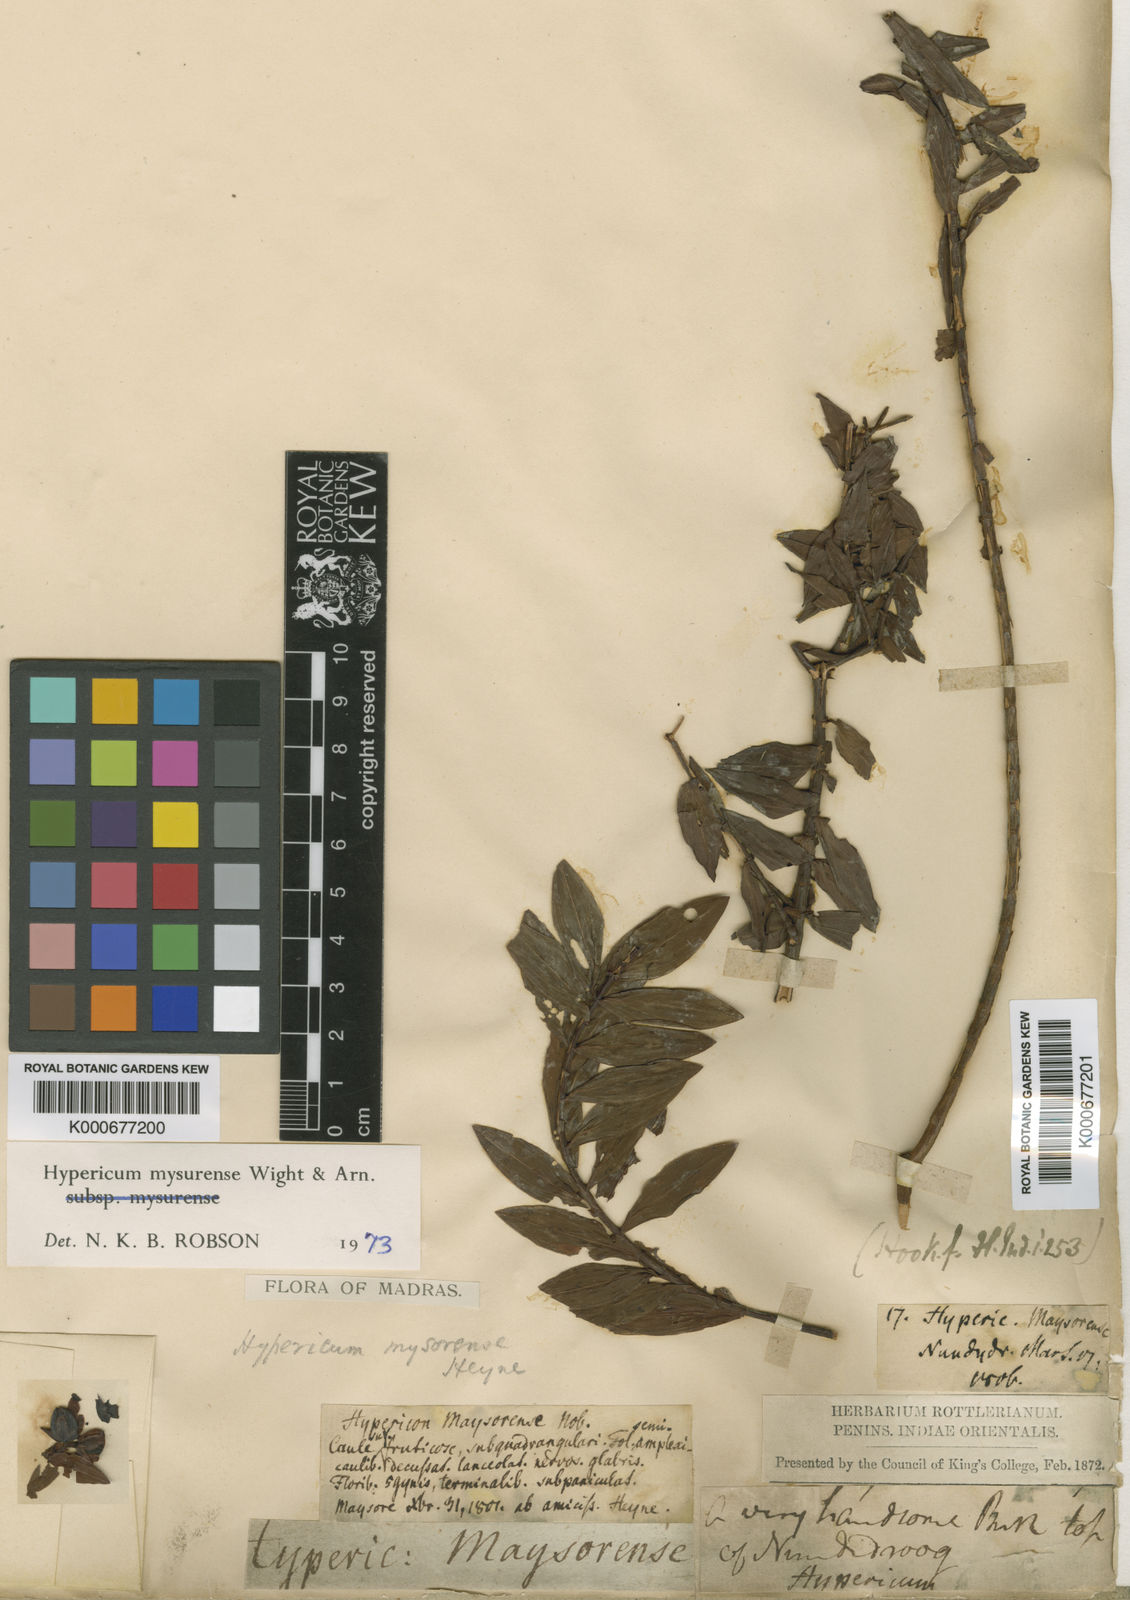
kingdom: Plantae
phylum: Tracheophyta
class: Magnoliopsida
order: Malpighiales
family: Hypericaceae
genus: Hypericum
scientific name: Hypericum
